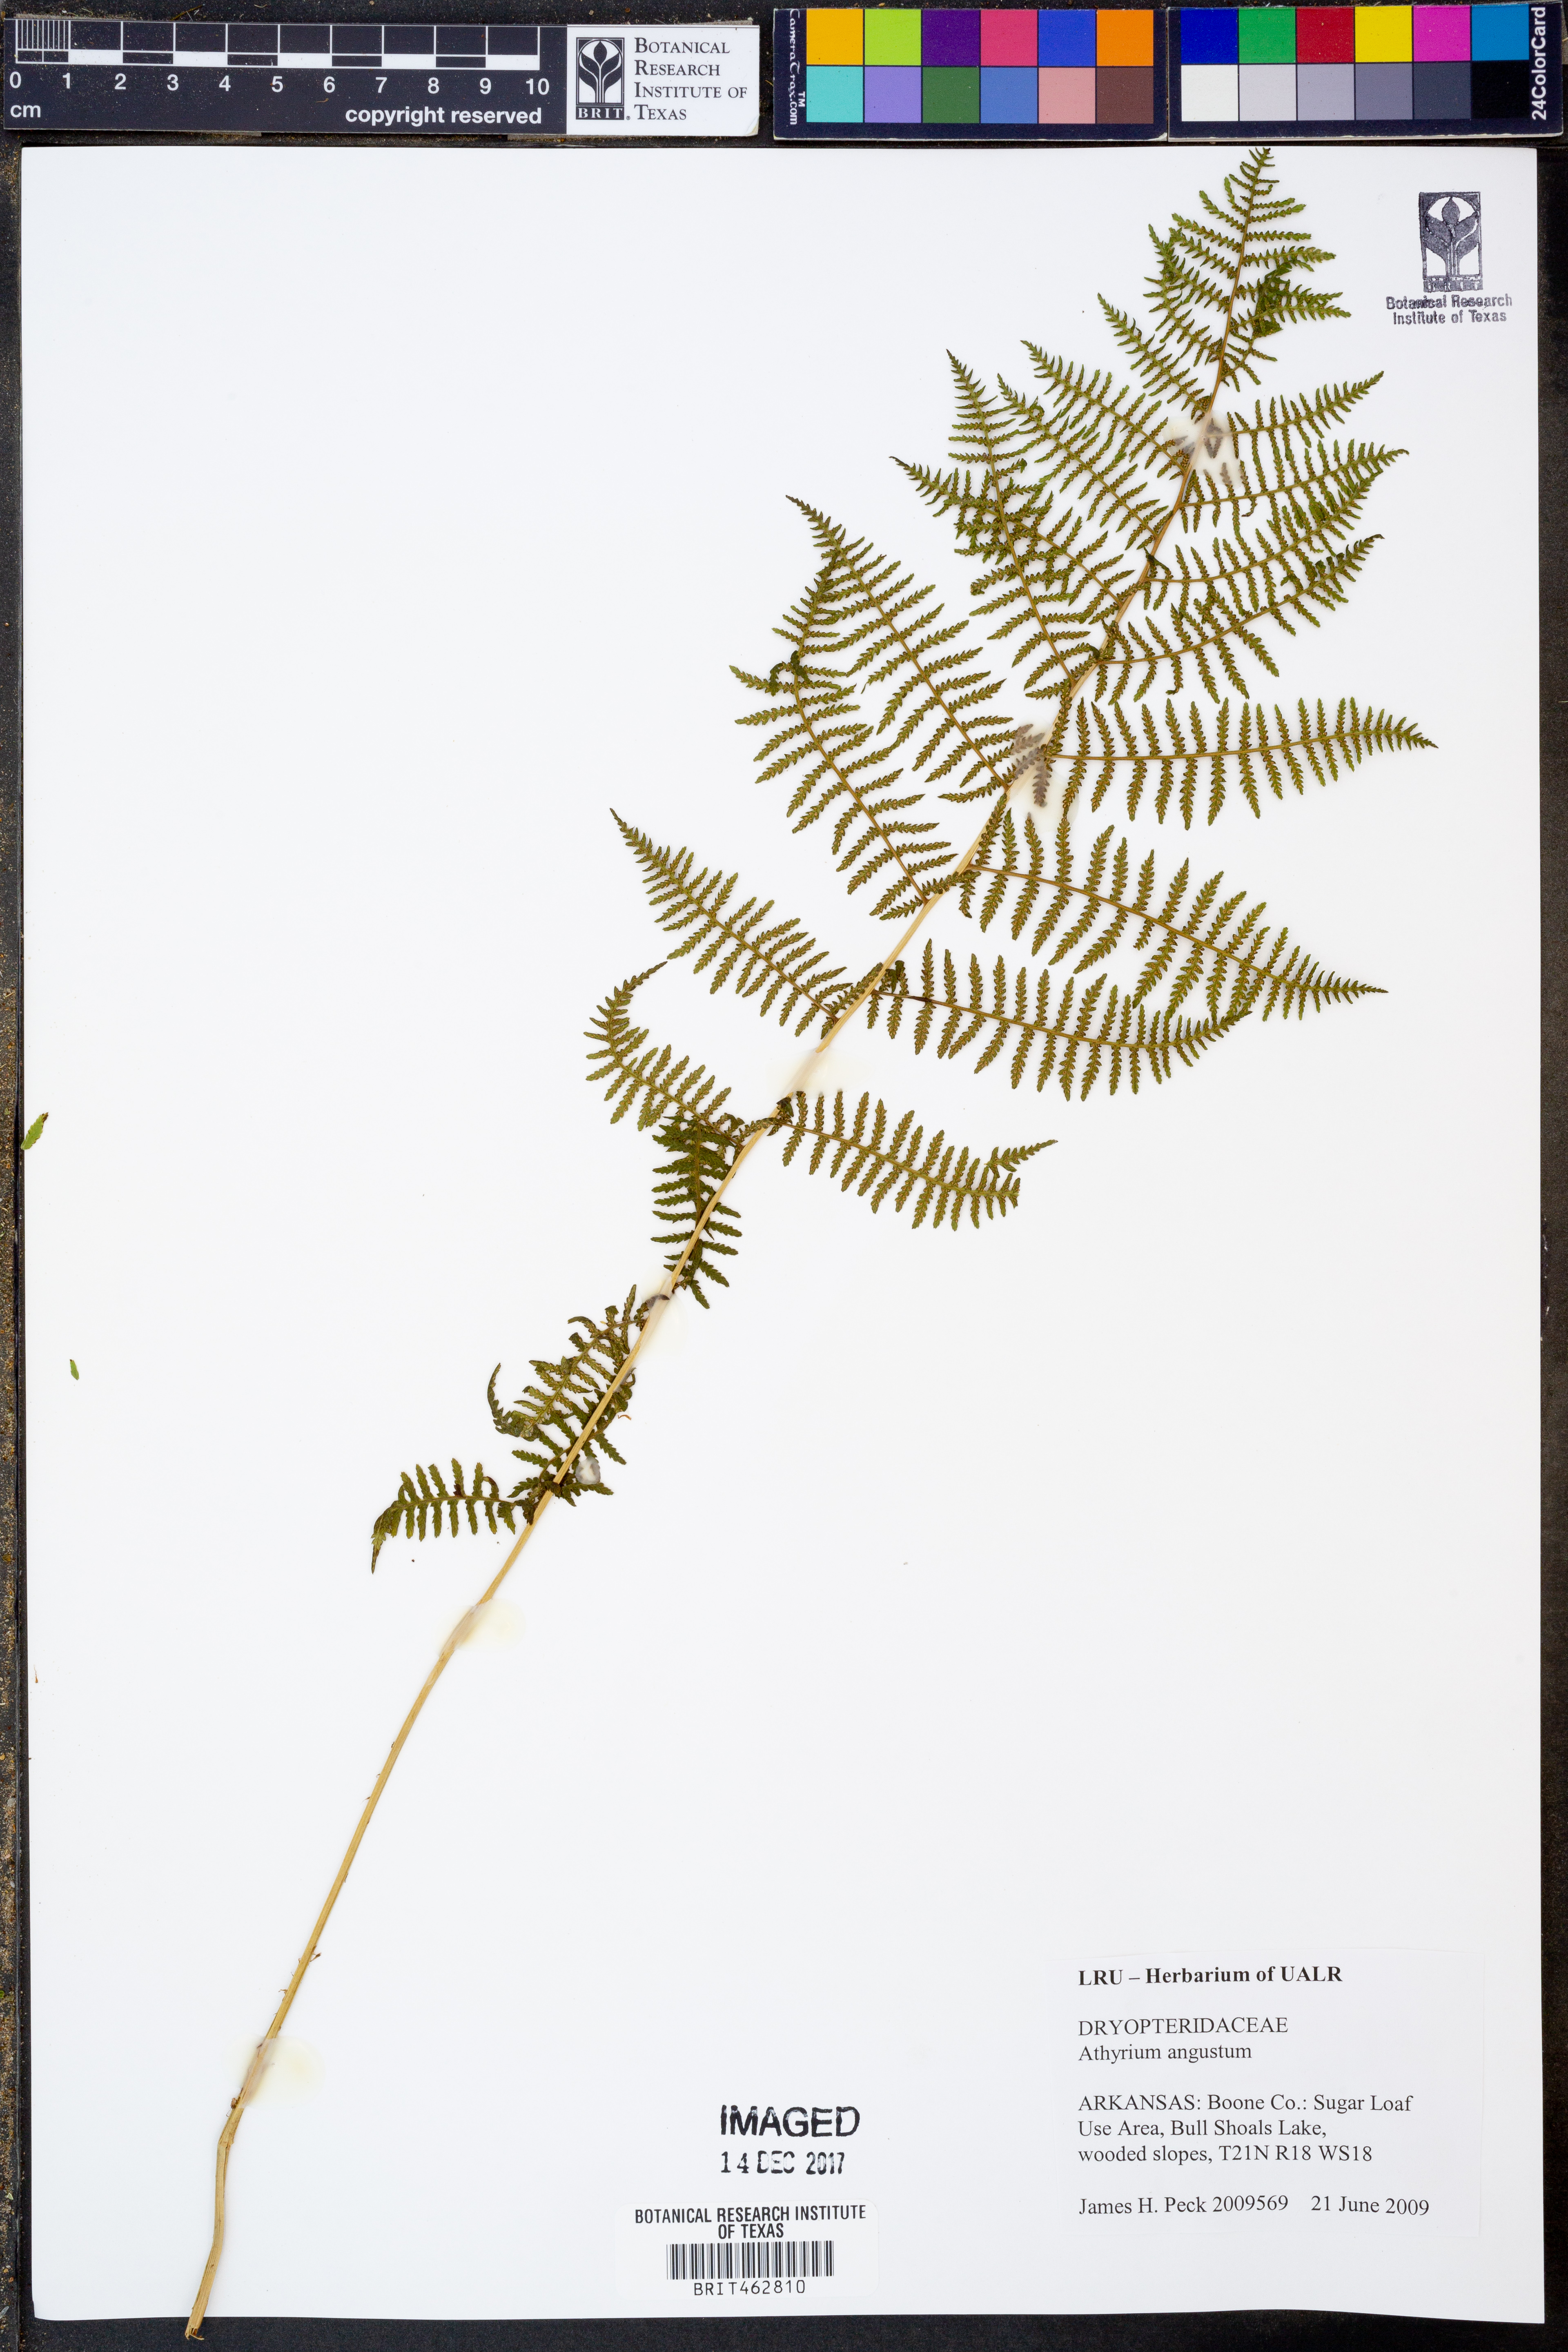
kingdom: Plantae
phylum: Tracheophyta
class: Polypodiopsida
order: Polypodiales
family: Athyriaceae
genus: Athyrium
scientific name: Athyrium angustum
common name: Northern lady fern
